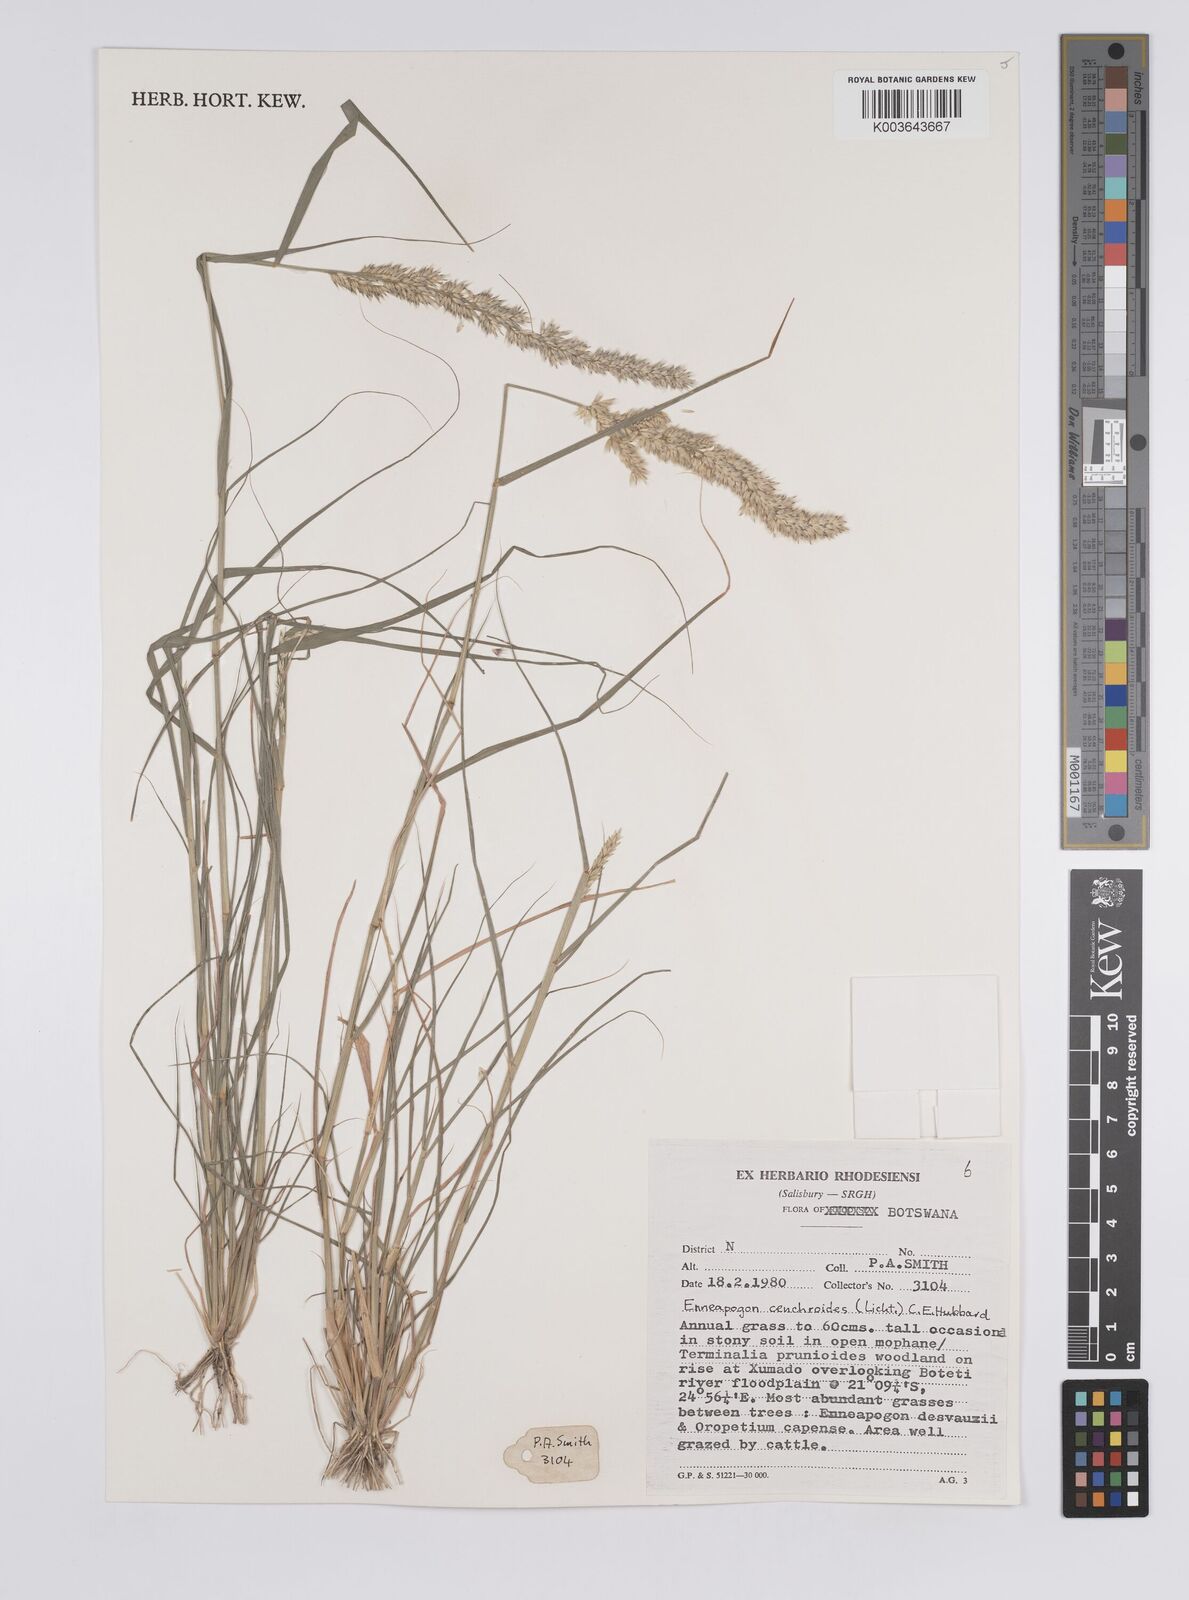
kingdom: Plantae
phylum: Tracheophyta
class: Liliopsida
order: Poales
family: Poaceae
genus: Enneapogon
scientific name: Enneapogon cenchroides
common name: Soft feather pappusgrass
